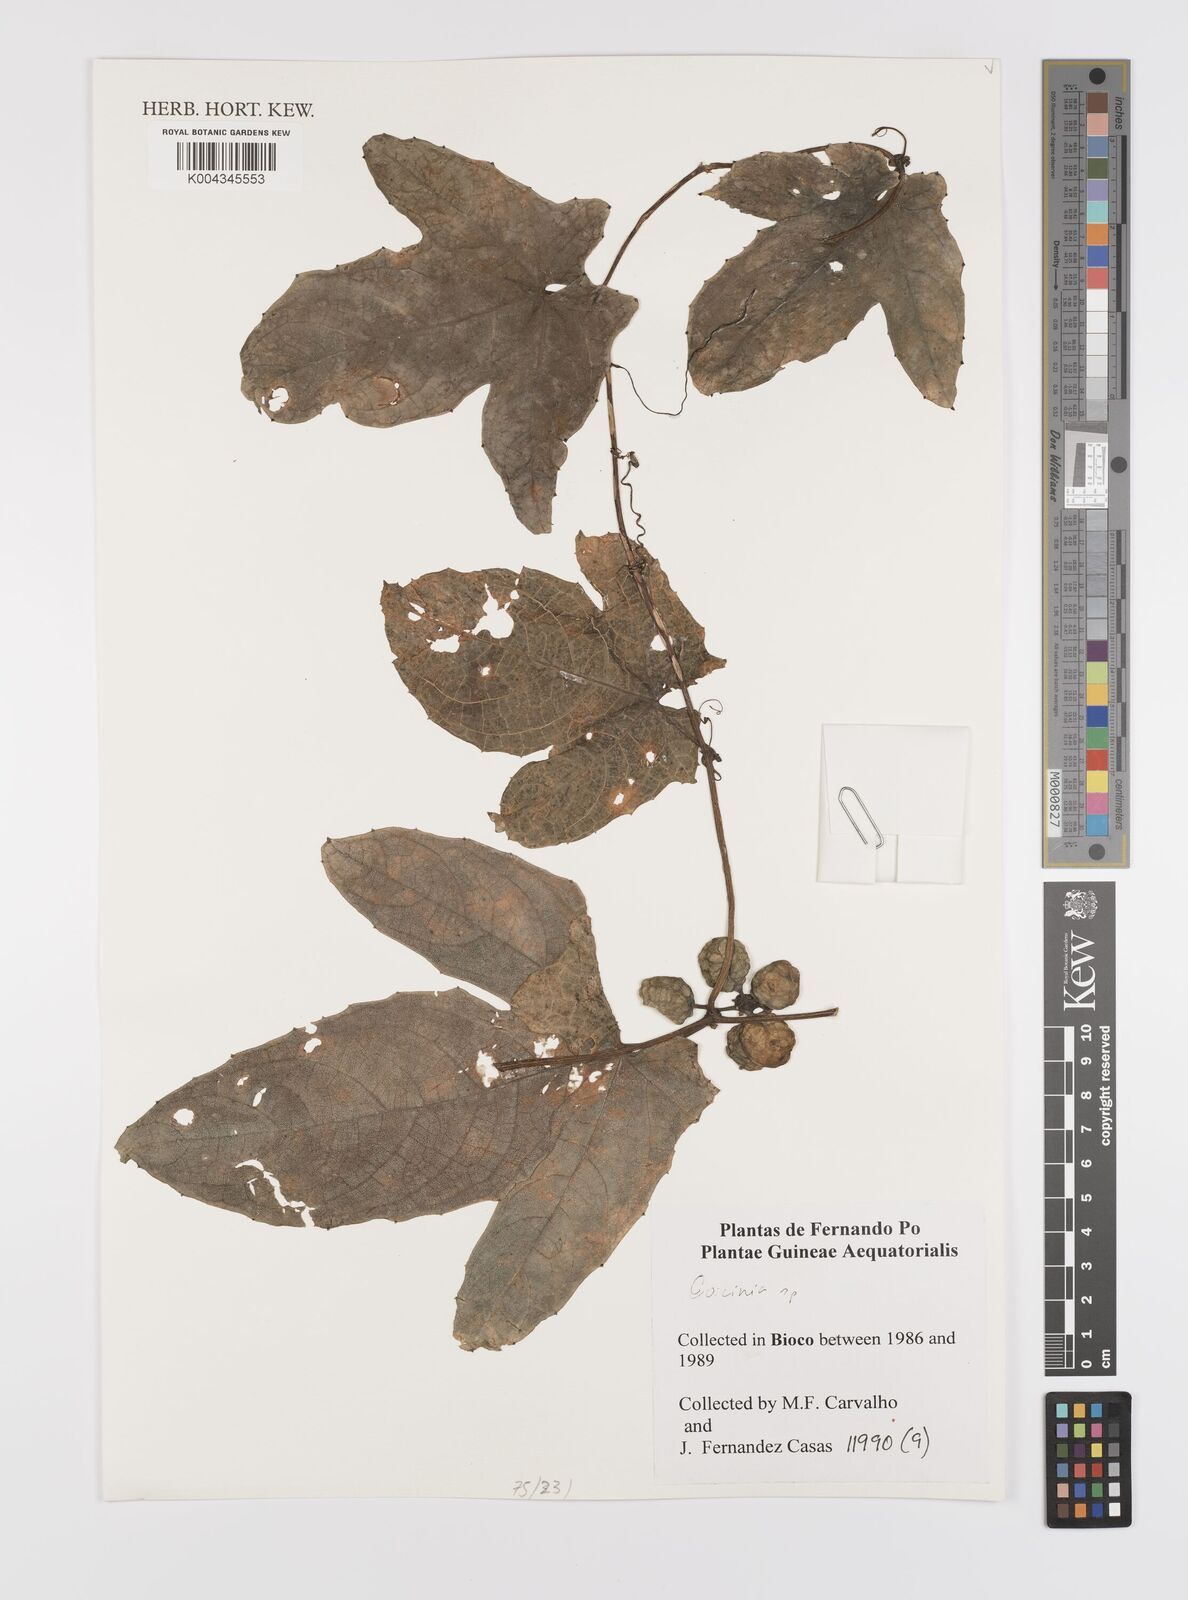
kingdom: Plantae
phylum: Tracheophyta
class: Magnoliopsida
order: Cucurbitales
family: Cucurbitaceae
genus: Coccinia
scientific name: Coccinia
